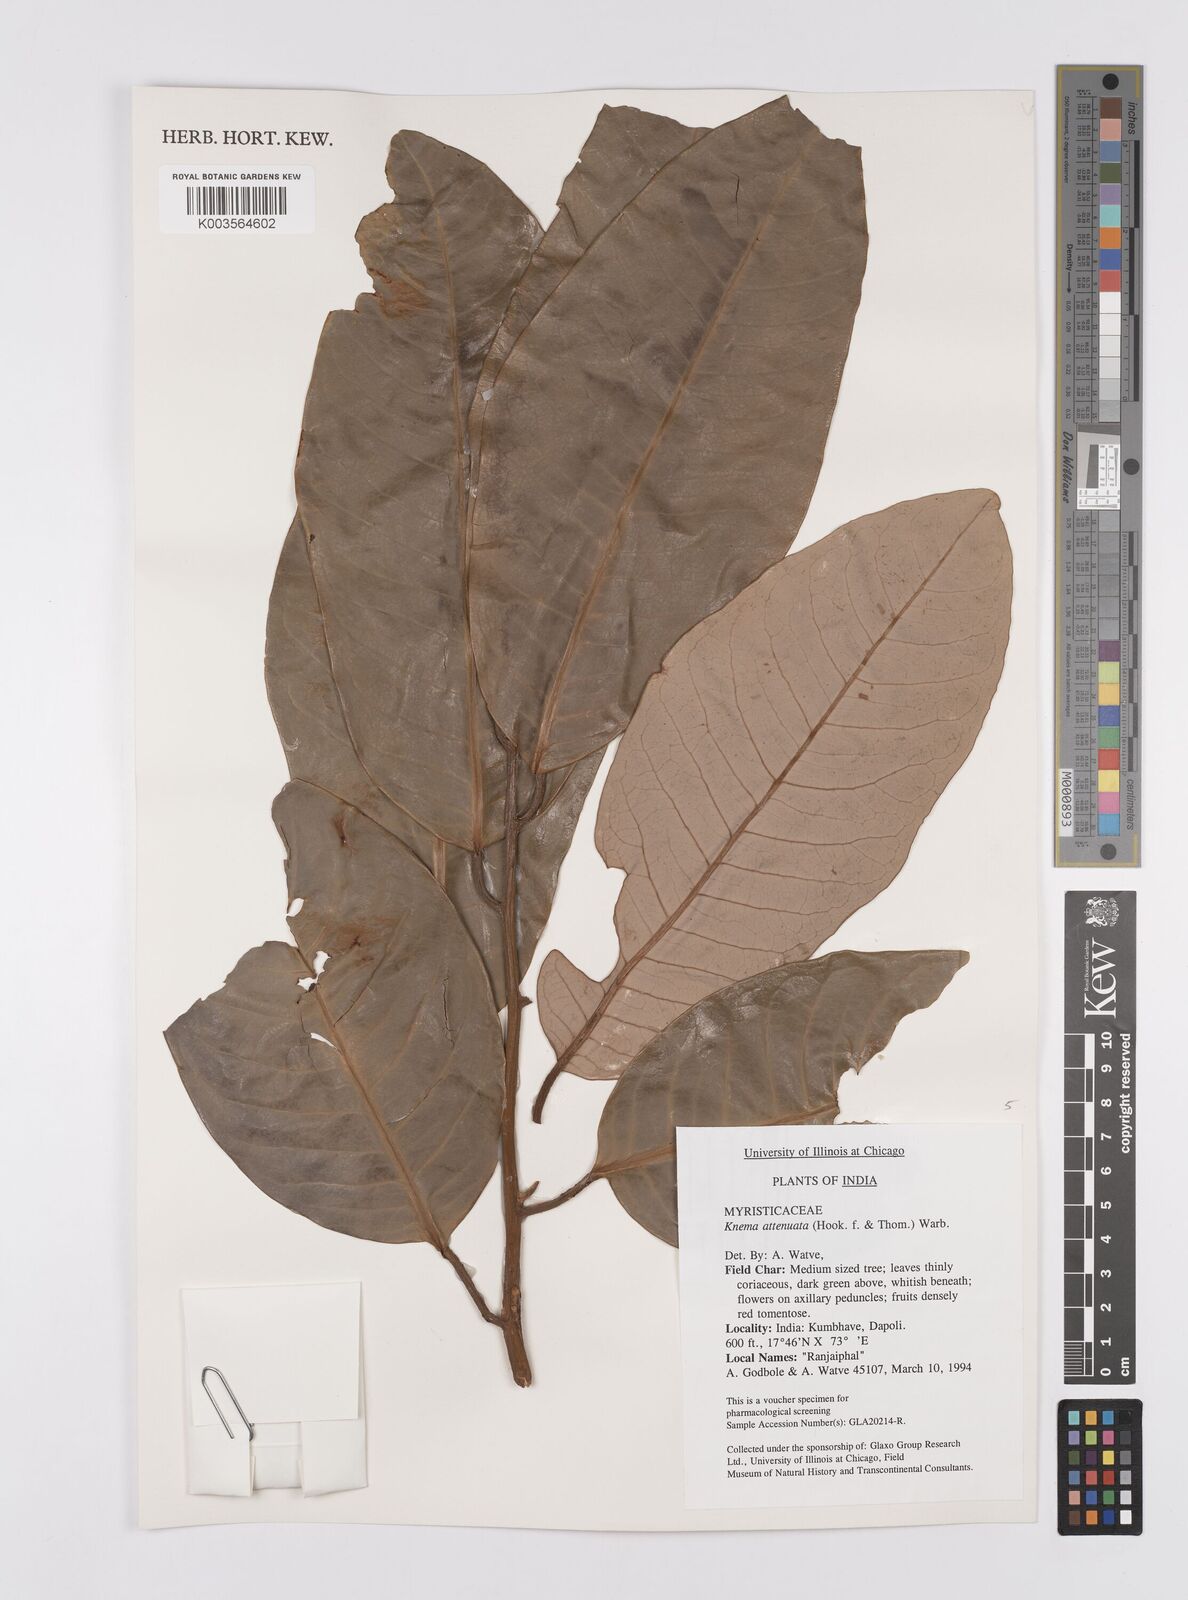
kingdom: Plantae
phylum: Tracheophyta
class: Magnoliopsida
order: Magnoliales
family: Myristicaceae
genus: Knema
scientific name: Knema attenuata
